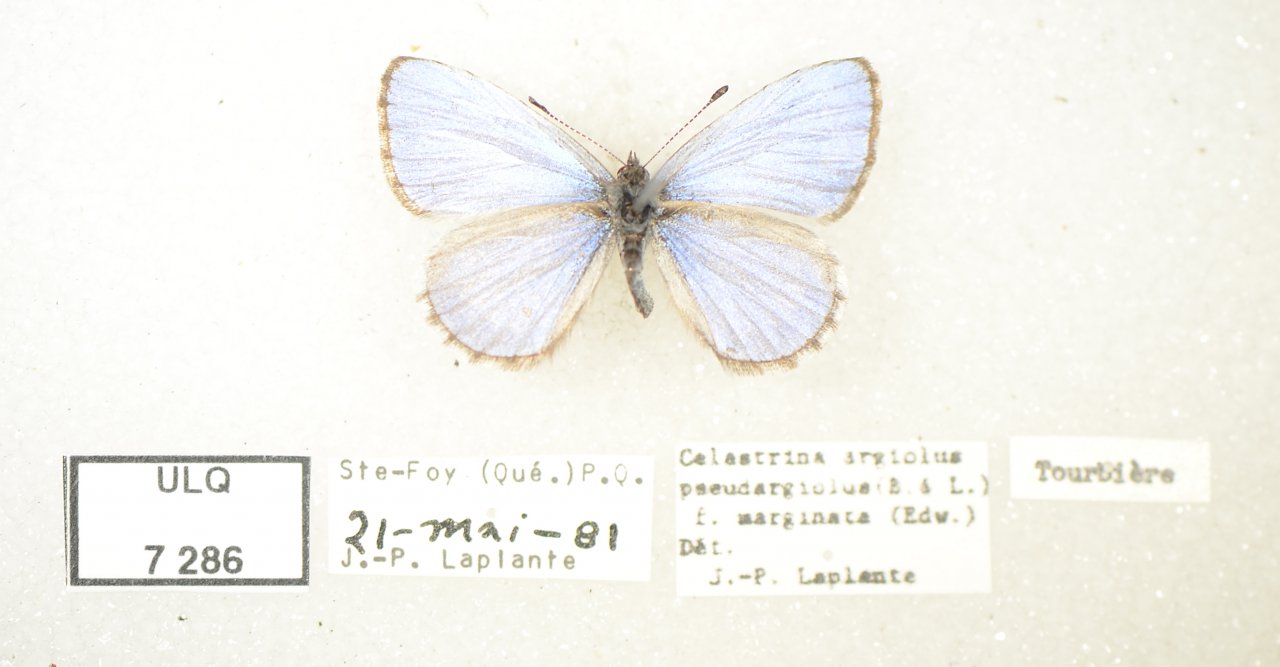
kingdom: Animalia
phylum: Arthropoda
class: Insecta
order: Lepidoptera
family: Lycaenidae
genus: Celastrina
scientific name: Celastrina lucia
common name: Northern Spring Azure
